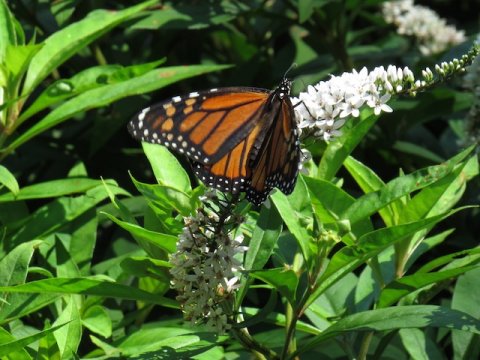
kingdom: Animalia
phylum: Arthropoda
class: Insecta
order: Lepidoptera
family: Nymphalidae
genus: Danaus
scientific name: Danaus plexippus
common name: Monarch
